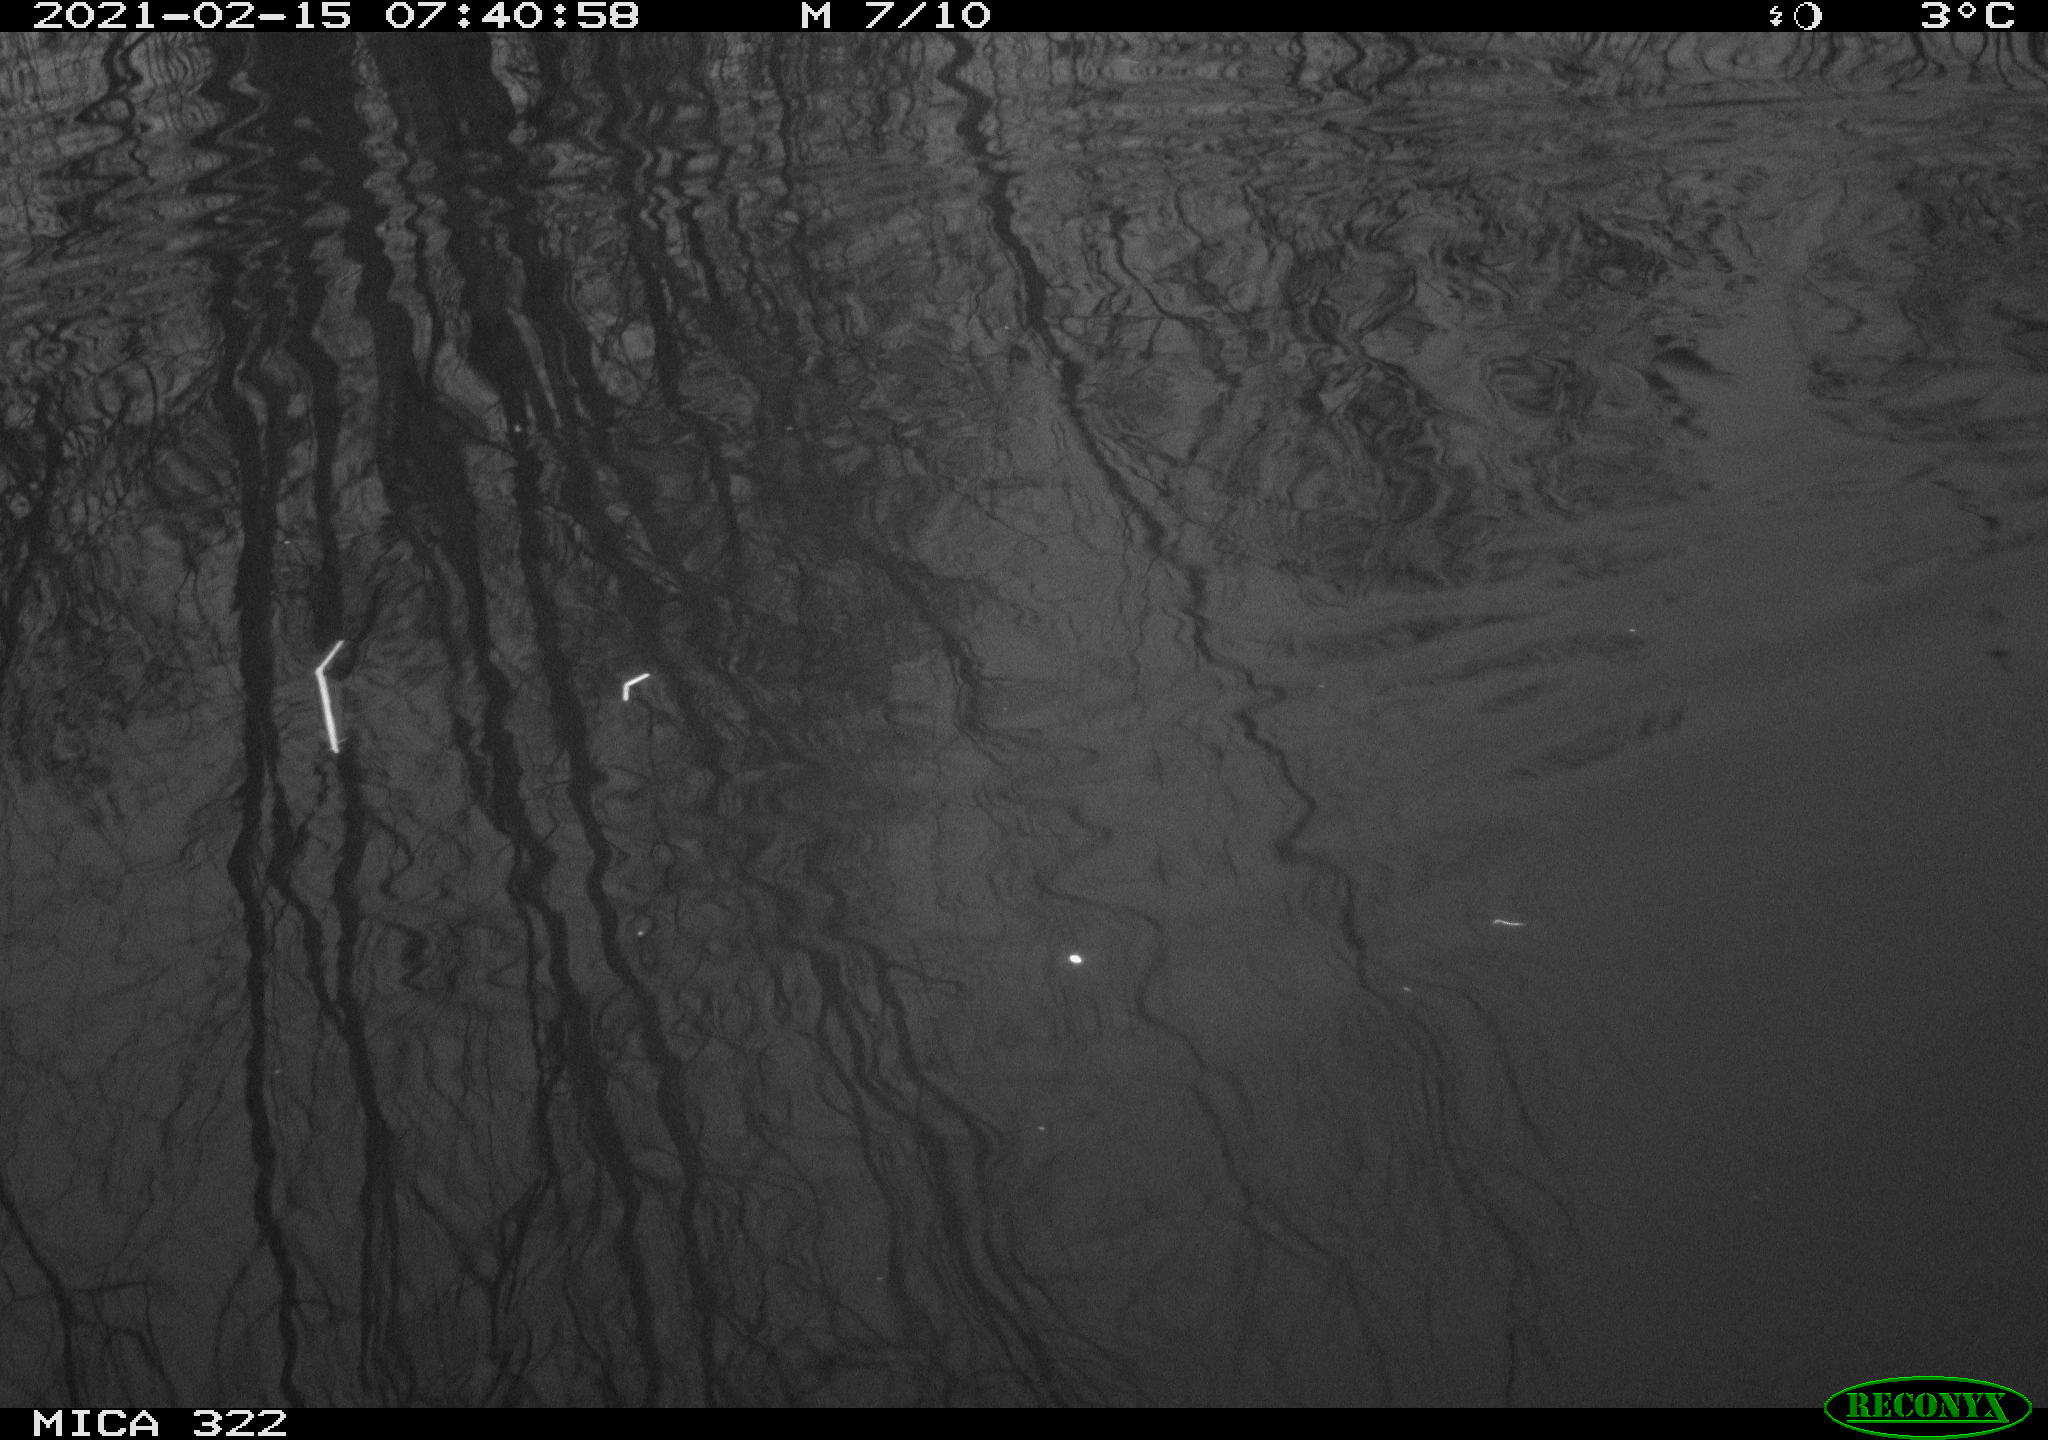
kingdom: Animalia
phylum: Chordata
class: Aves
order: Gruiformes
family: Rallidae
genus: Gallinula
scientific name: Gallinula chloropus
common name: Common moorhen
